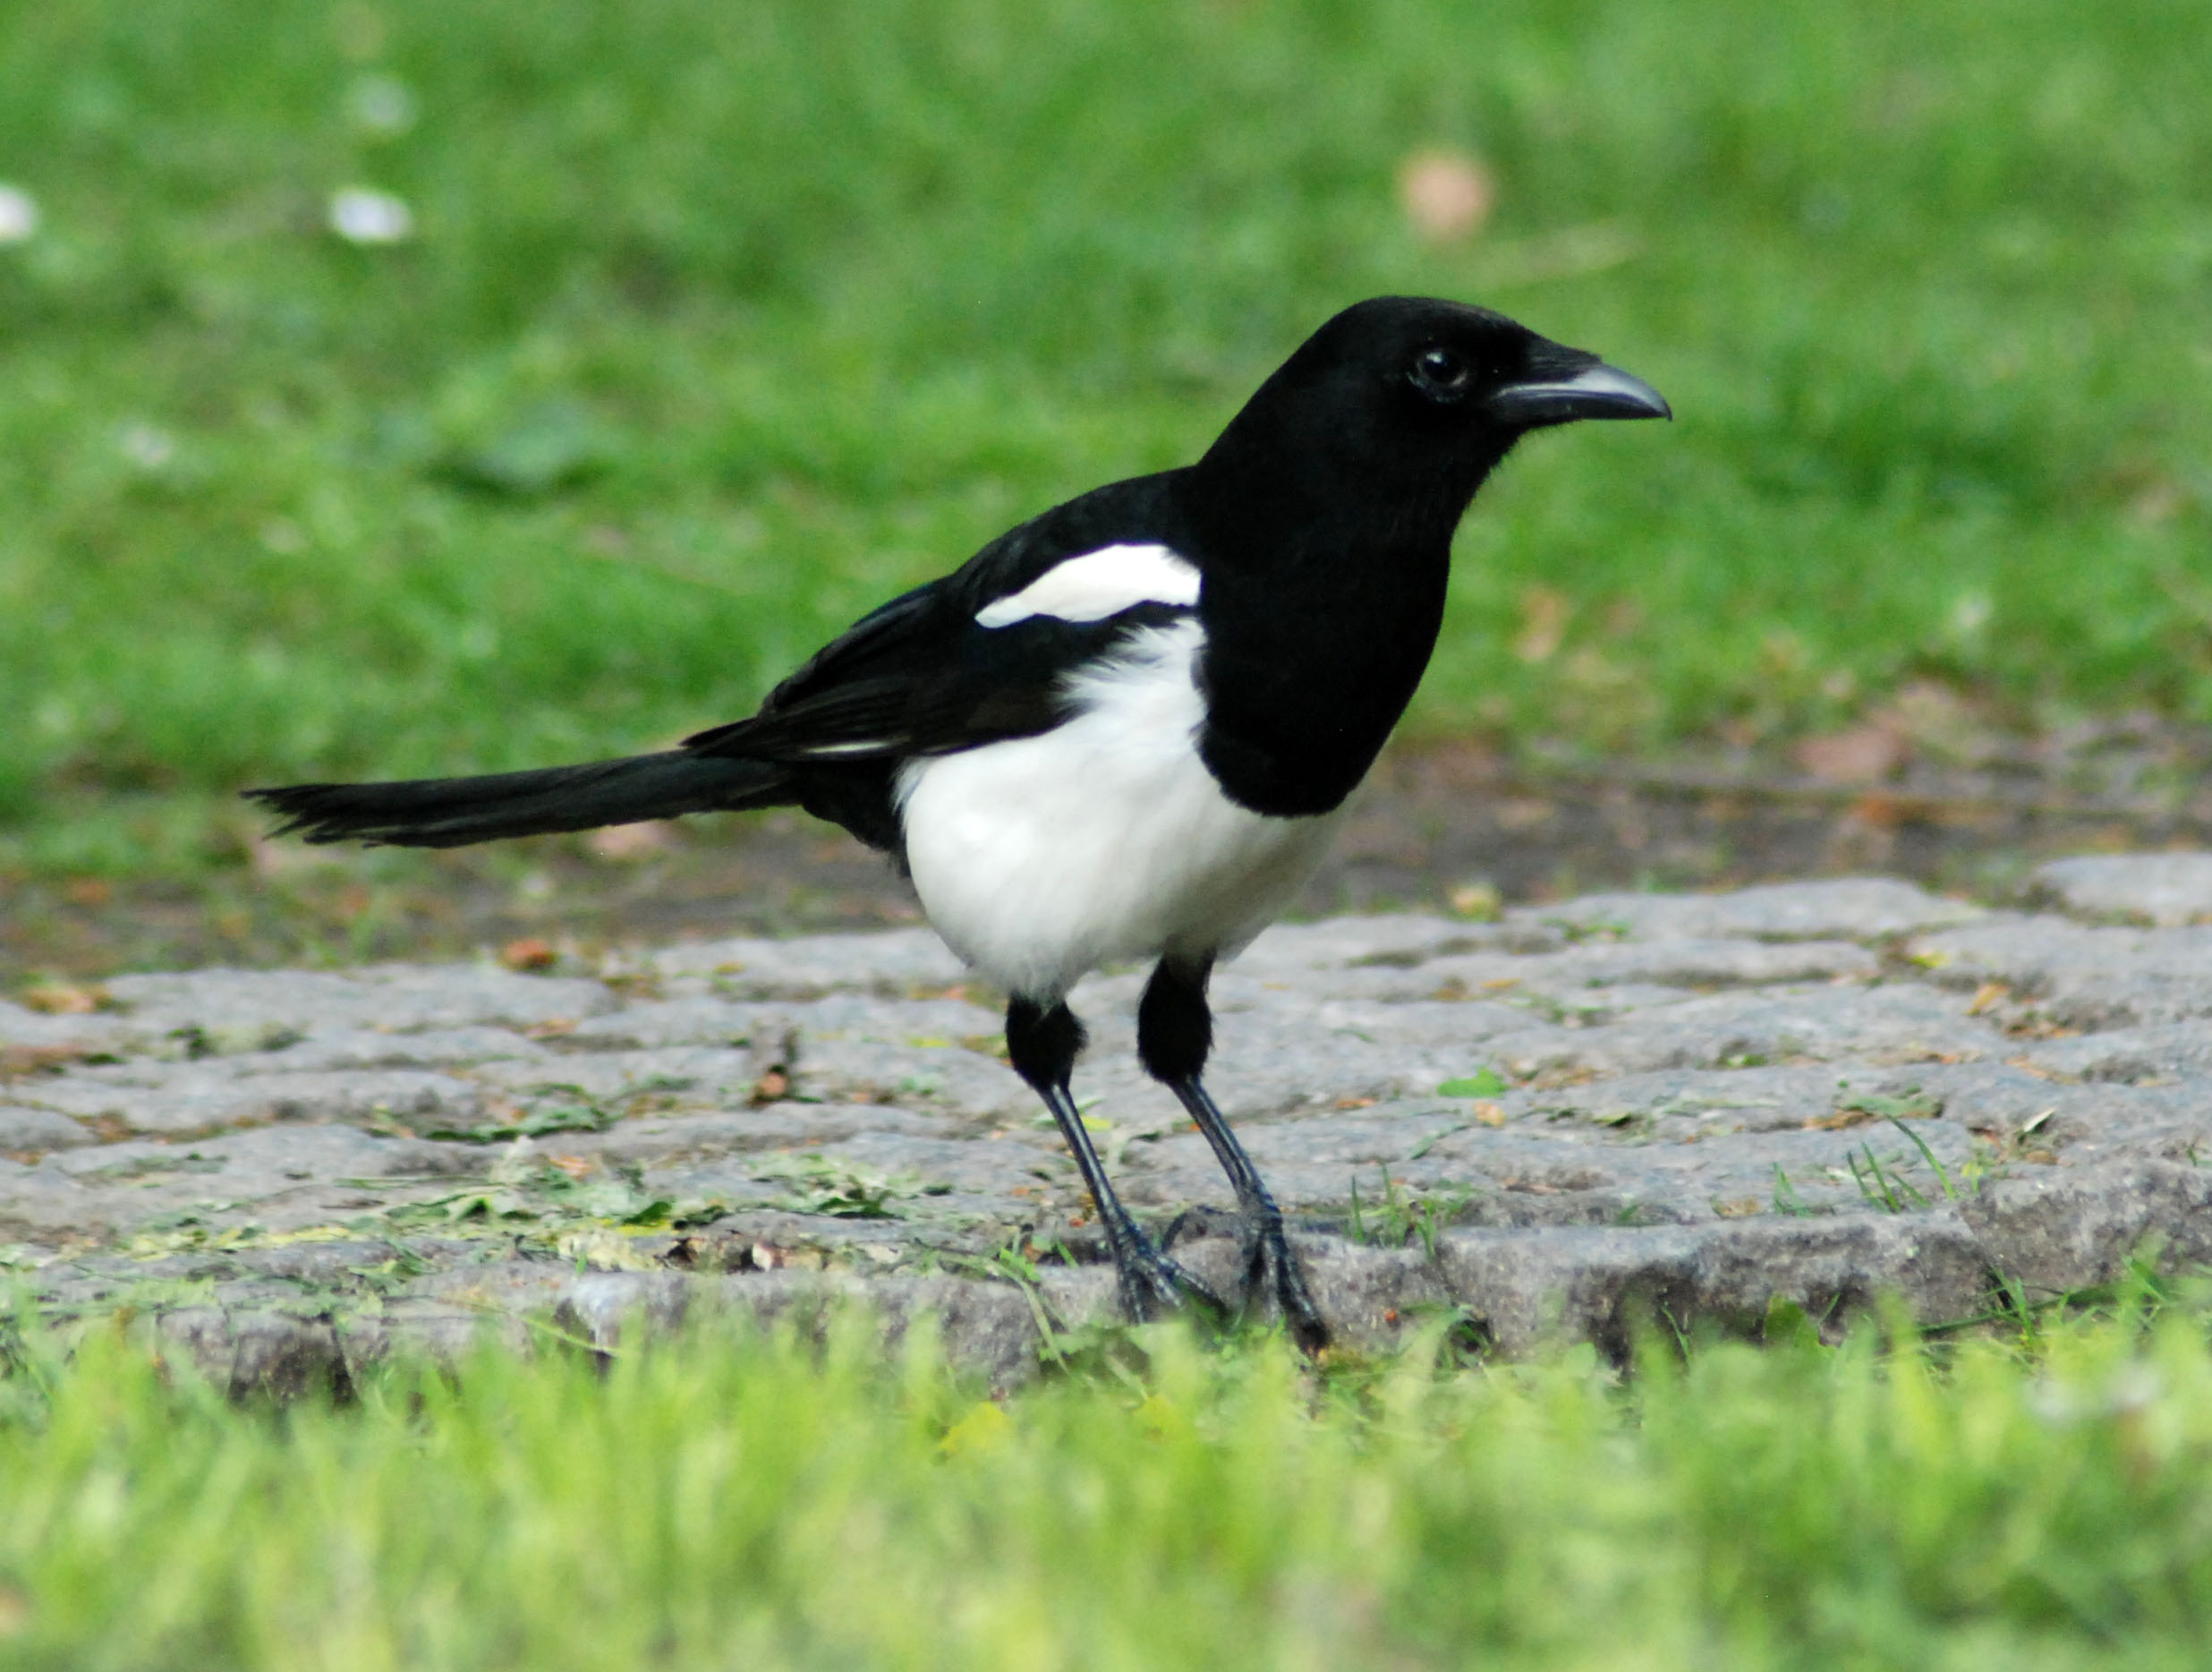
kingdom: Animalia
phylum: Chordata
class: Aves
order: Passeriformes
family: Corvidae
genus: Pica
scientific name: Pica pica
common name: Eurasian magpie
